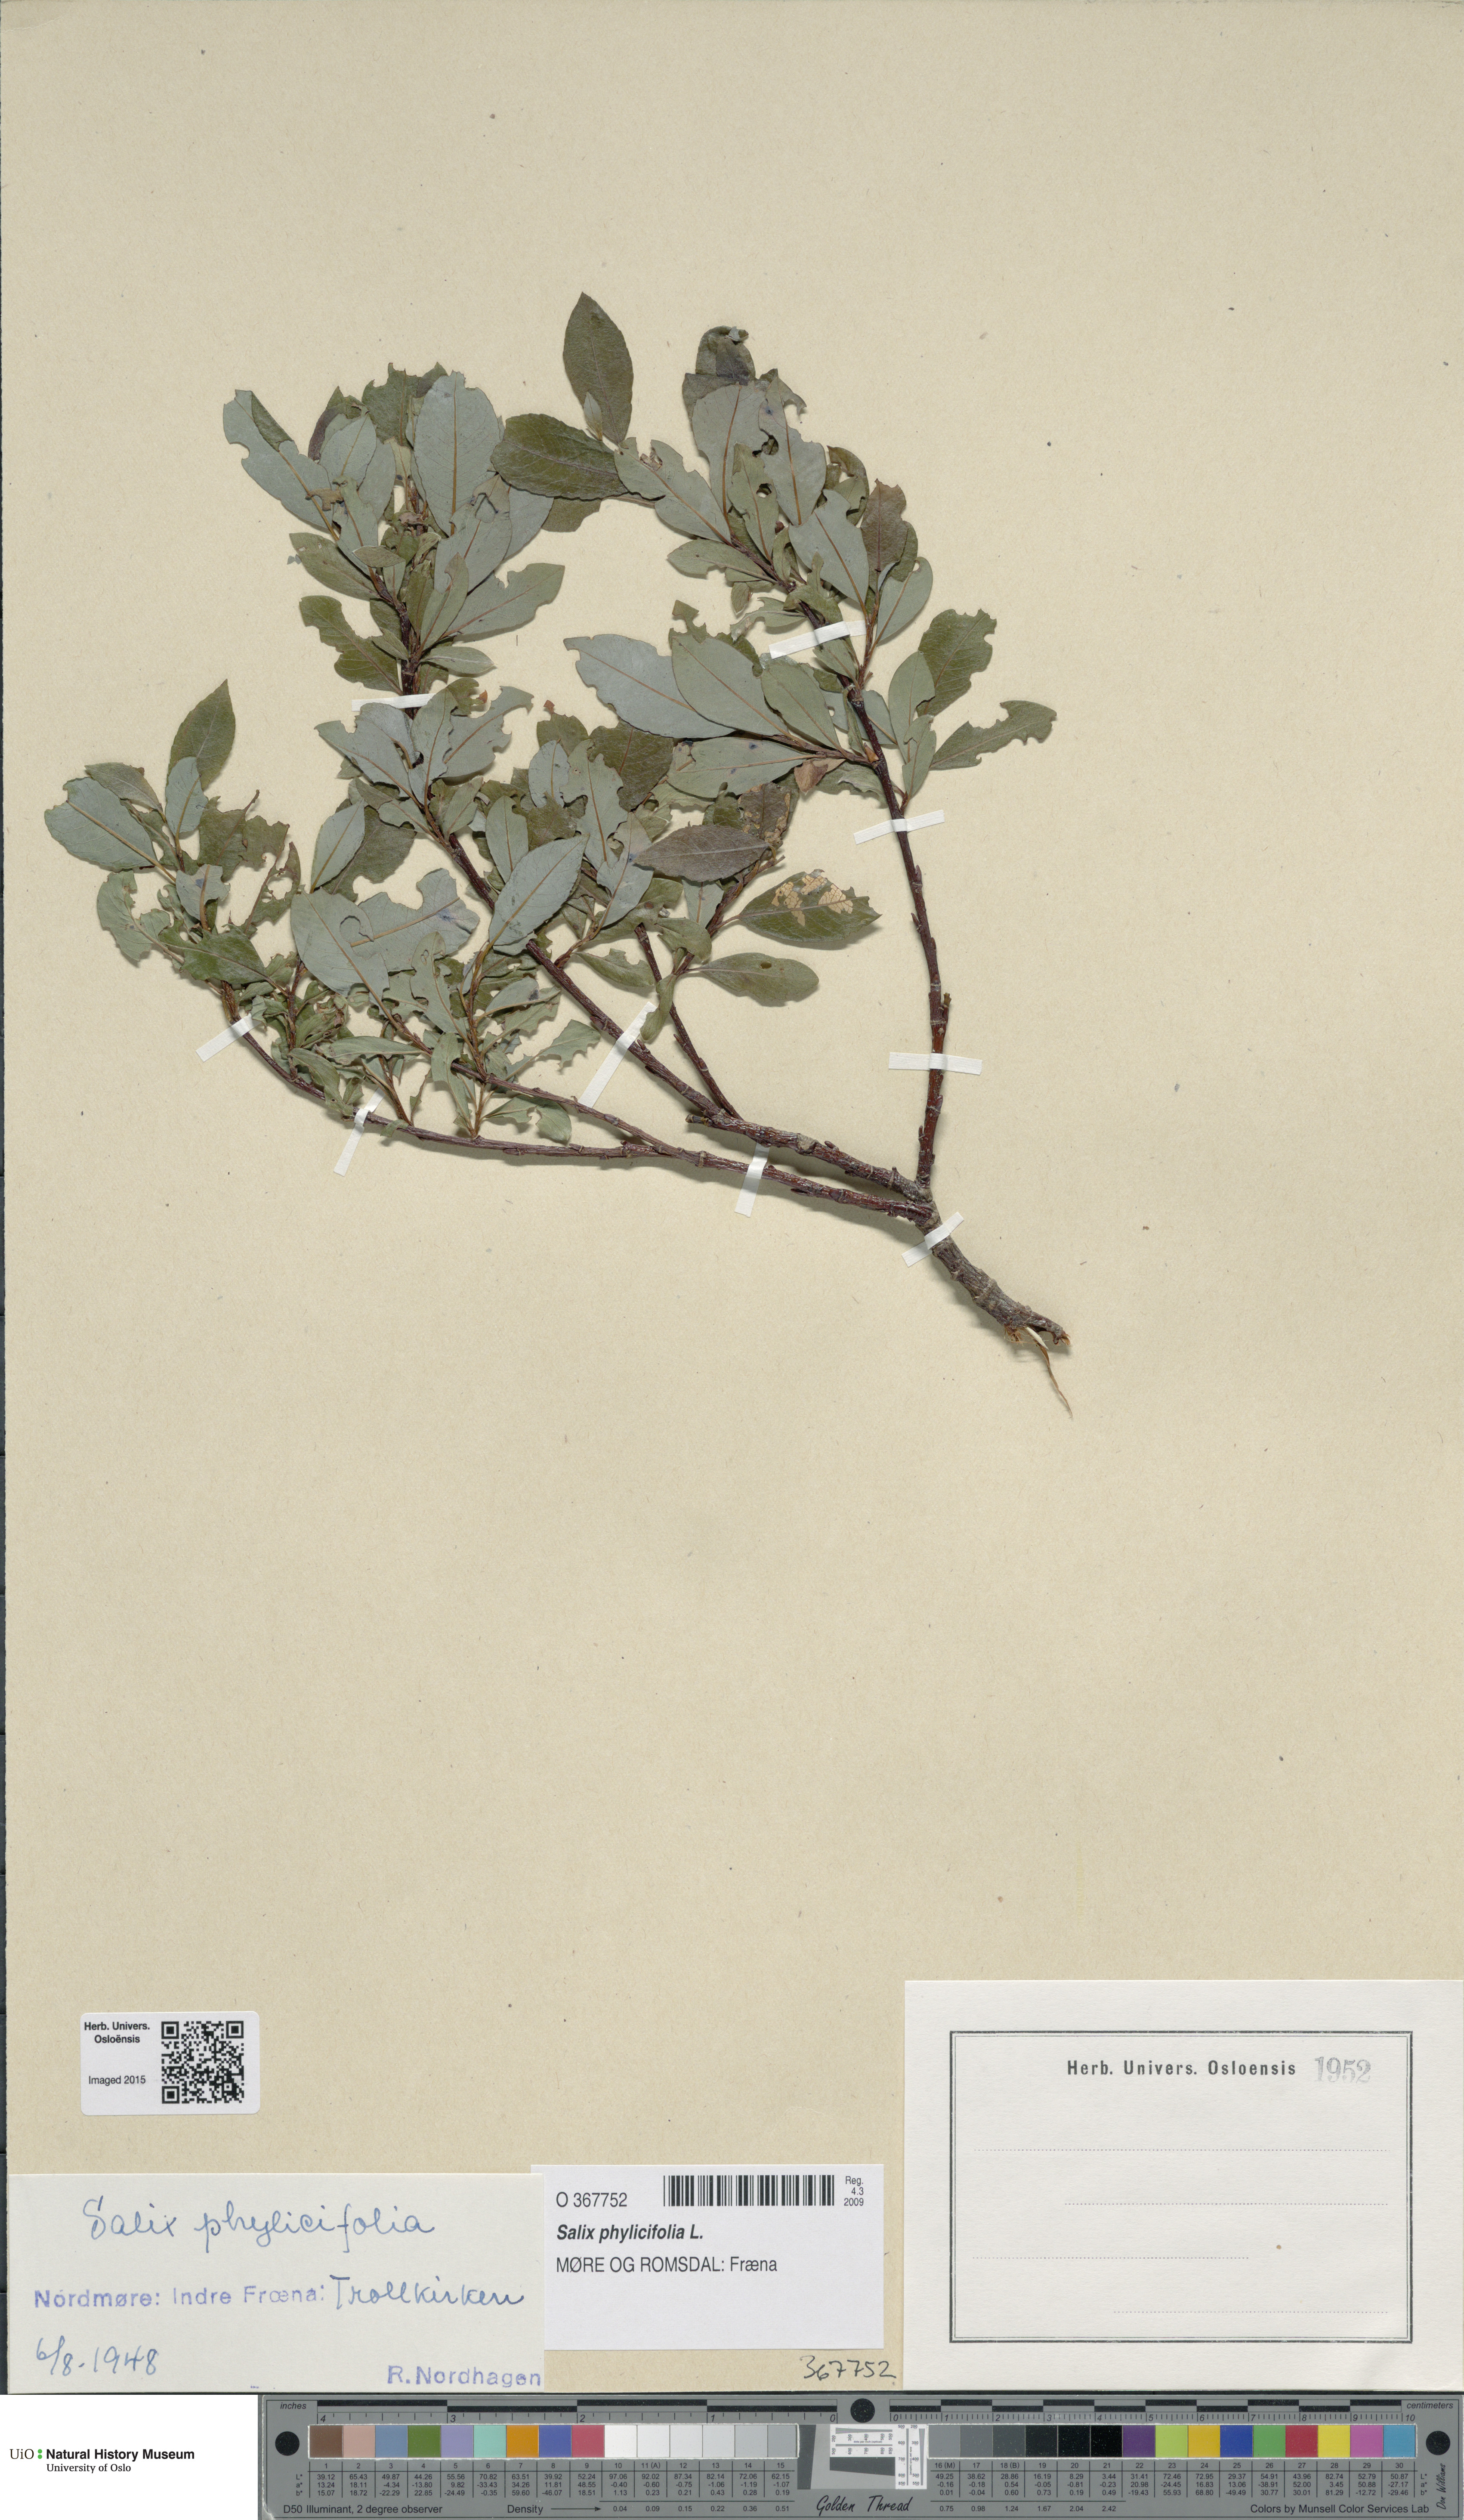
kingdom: Plantae
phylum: Tracheophyta
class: Magnoliopsida
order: Malpighiales
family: Salicaceae
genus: Salix
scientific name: Salix phylicifolia
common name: Tea-leaved willow
